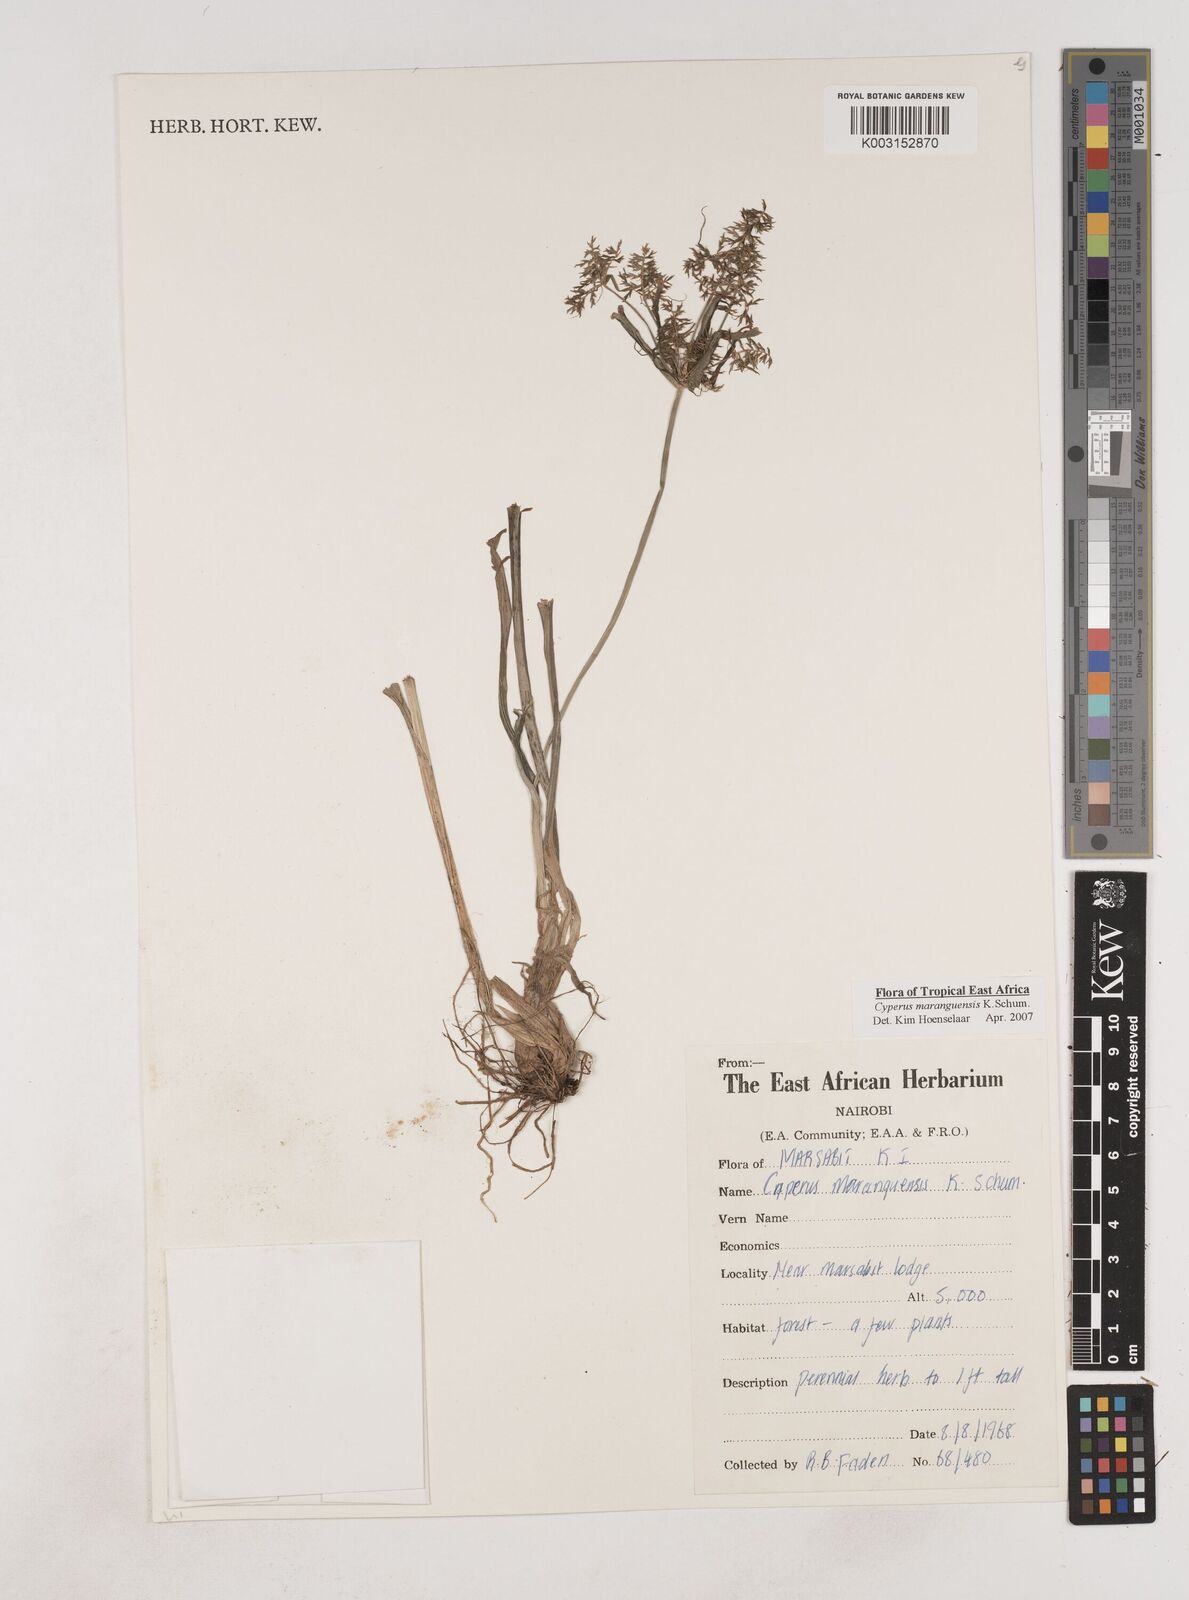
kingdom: Plantae
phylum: Tracheophyta
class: Liliopsida
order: Poales
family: Cyperaceae
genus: Cyperus
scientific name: Cyperus maranguensis
